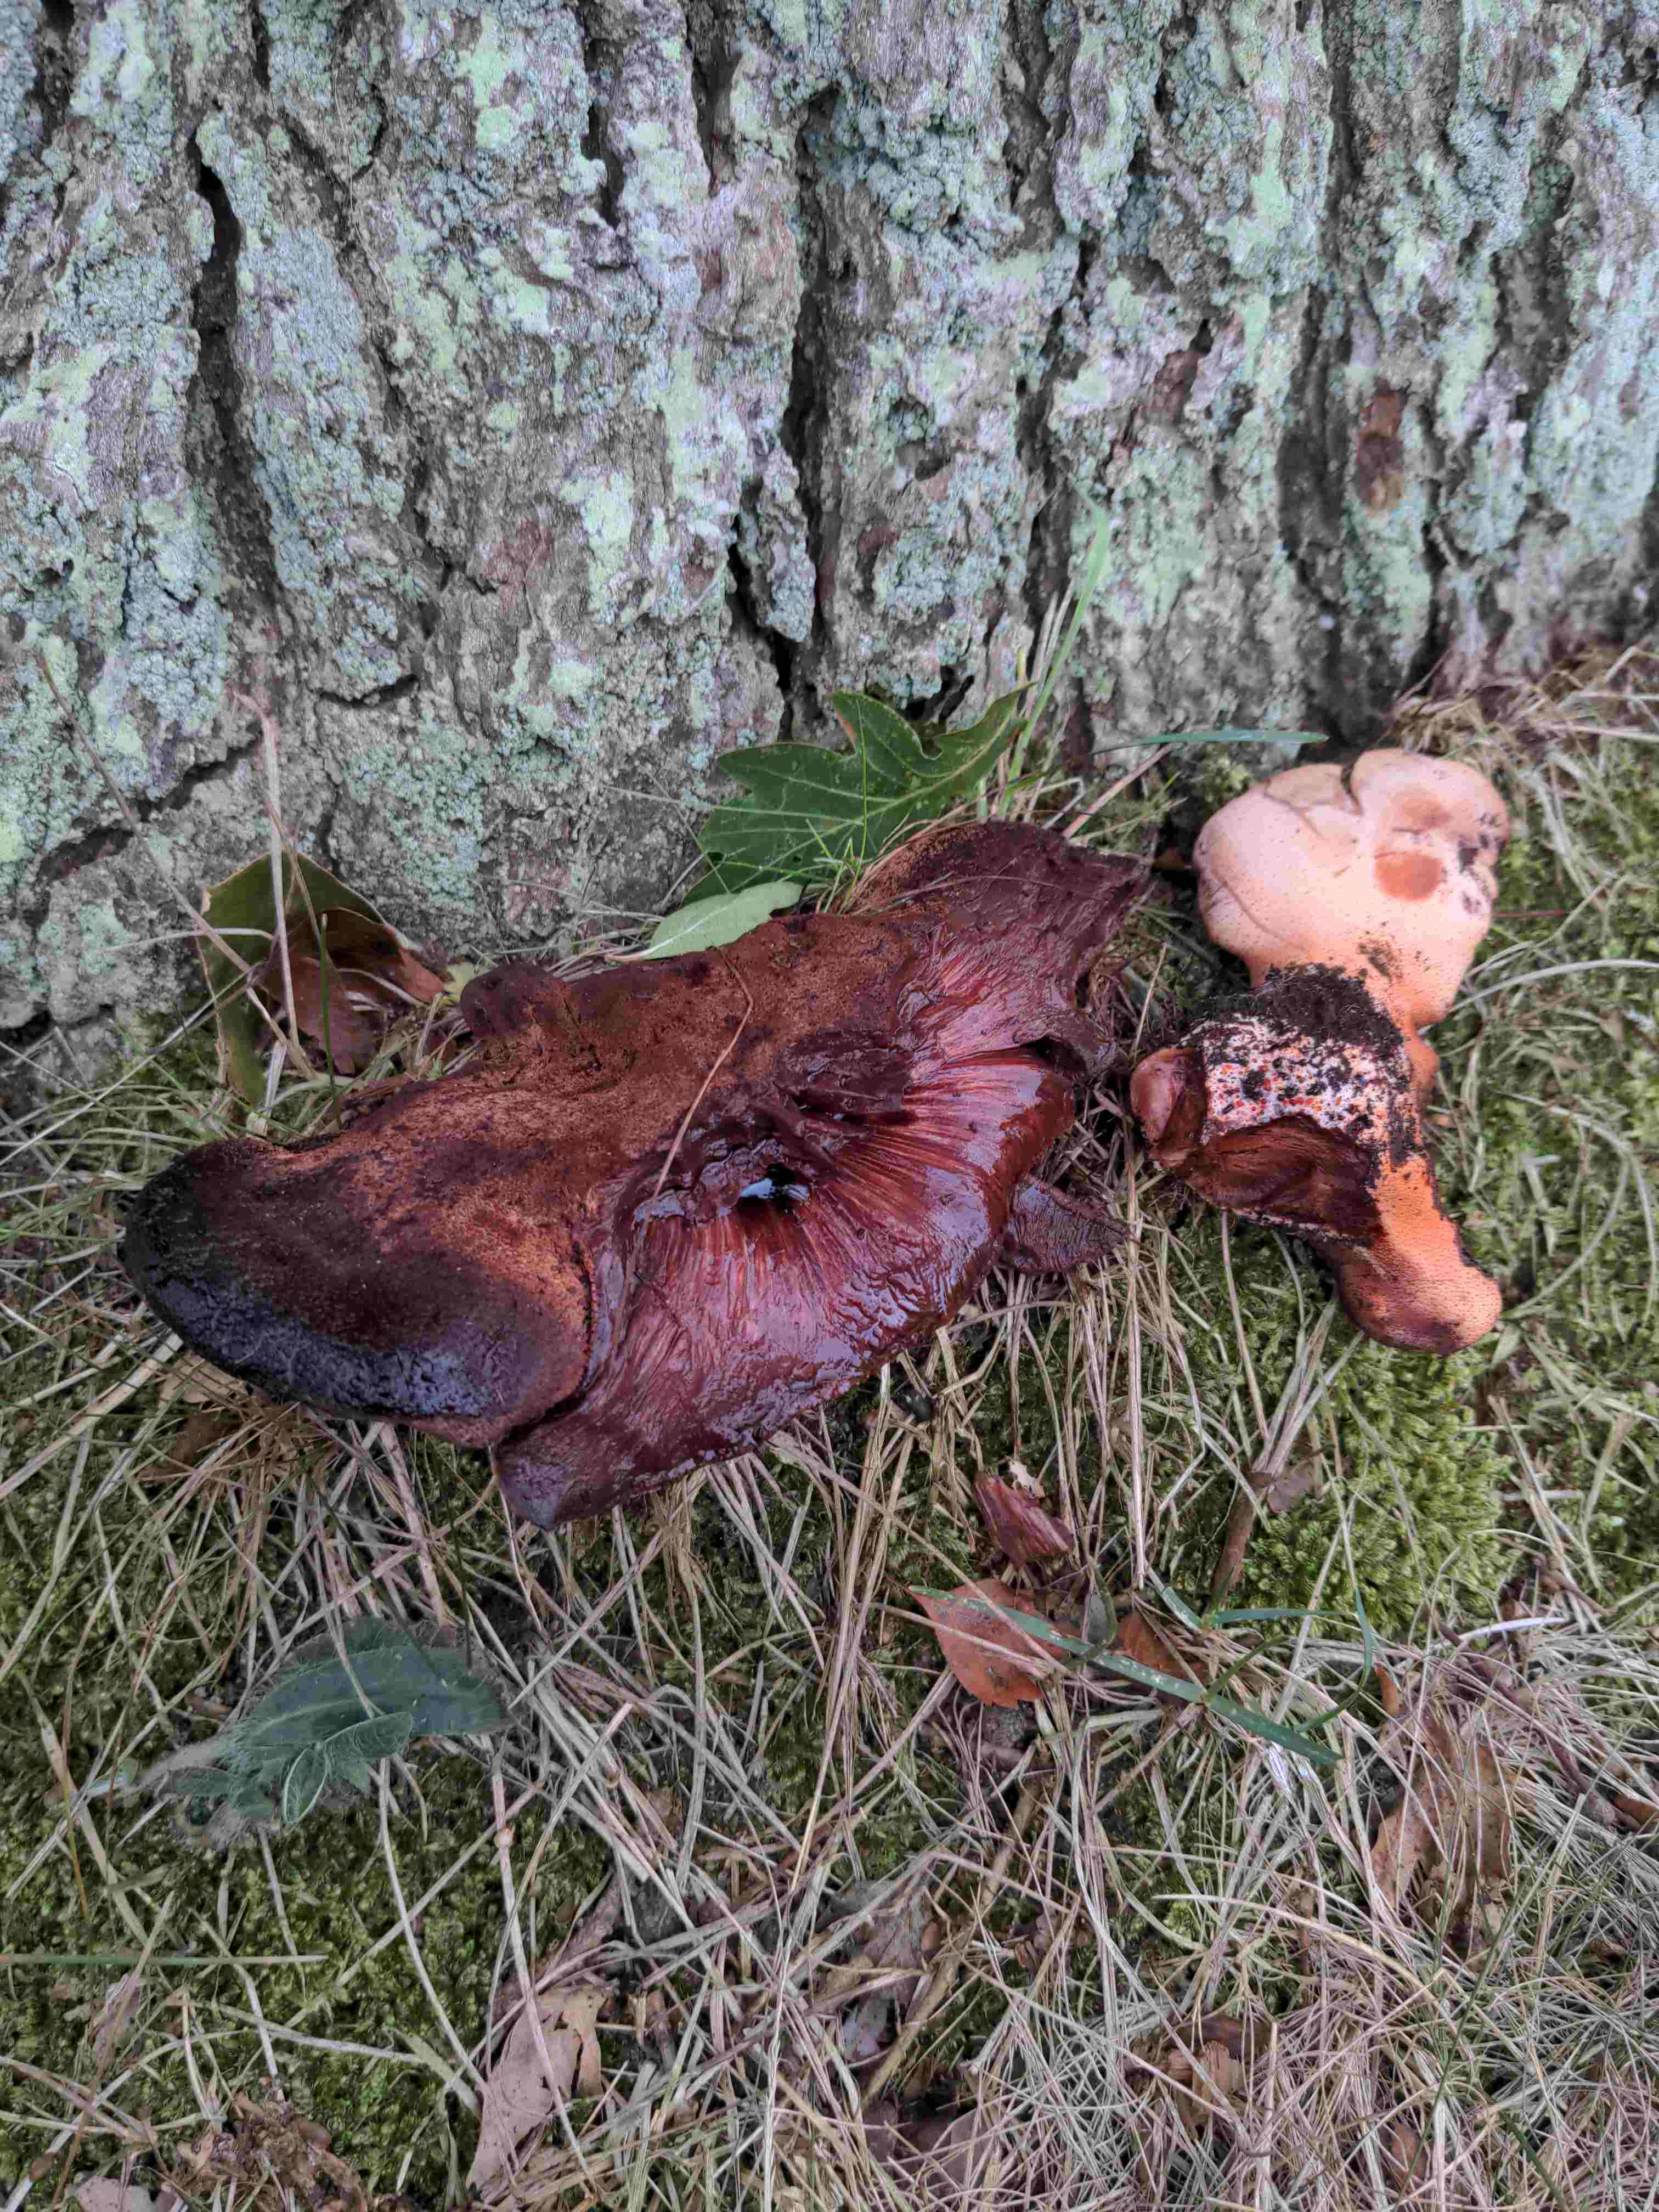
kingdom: Fungi
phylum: Basidiomycota
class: Agaricomycetes
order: Agaricales
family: Fistulinaceae
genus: Fistulina
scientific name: Fistulina hepatica
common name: oksetunge
